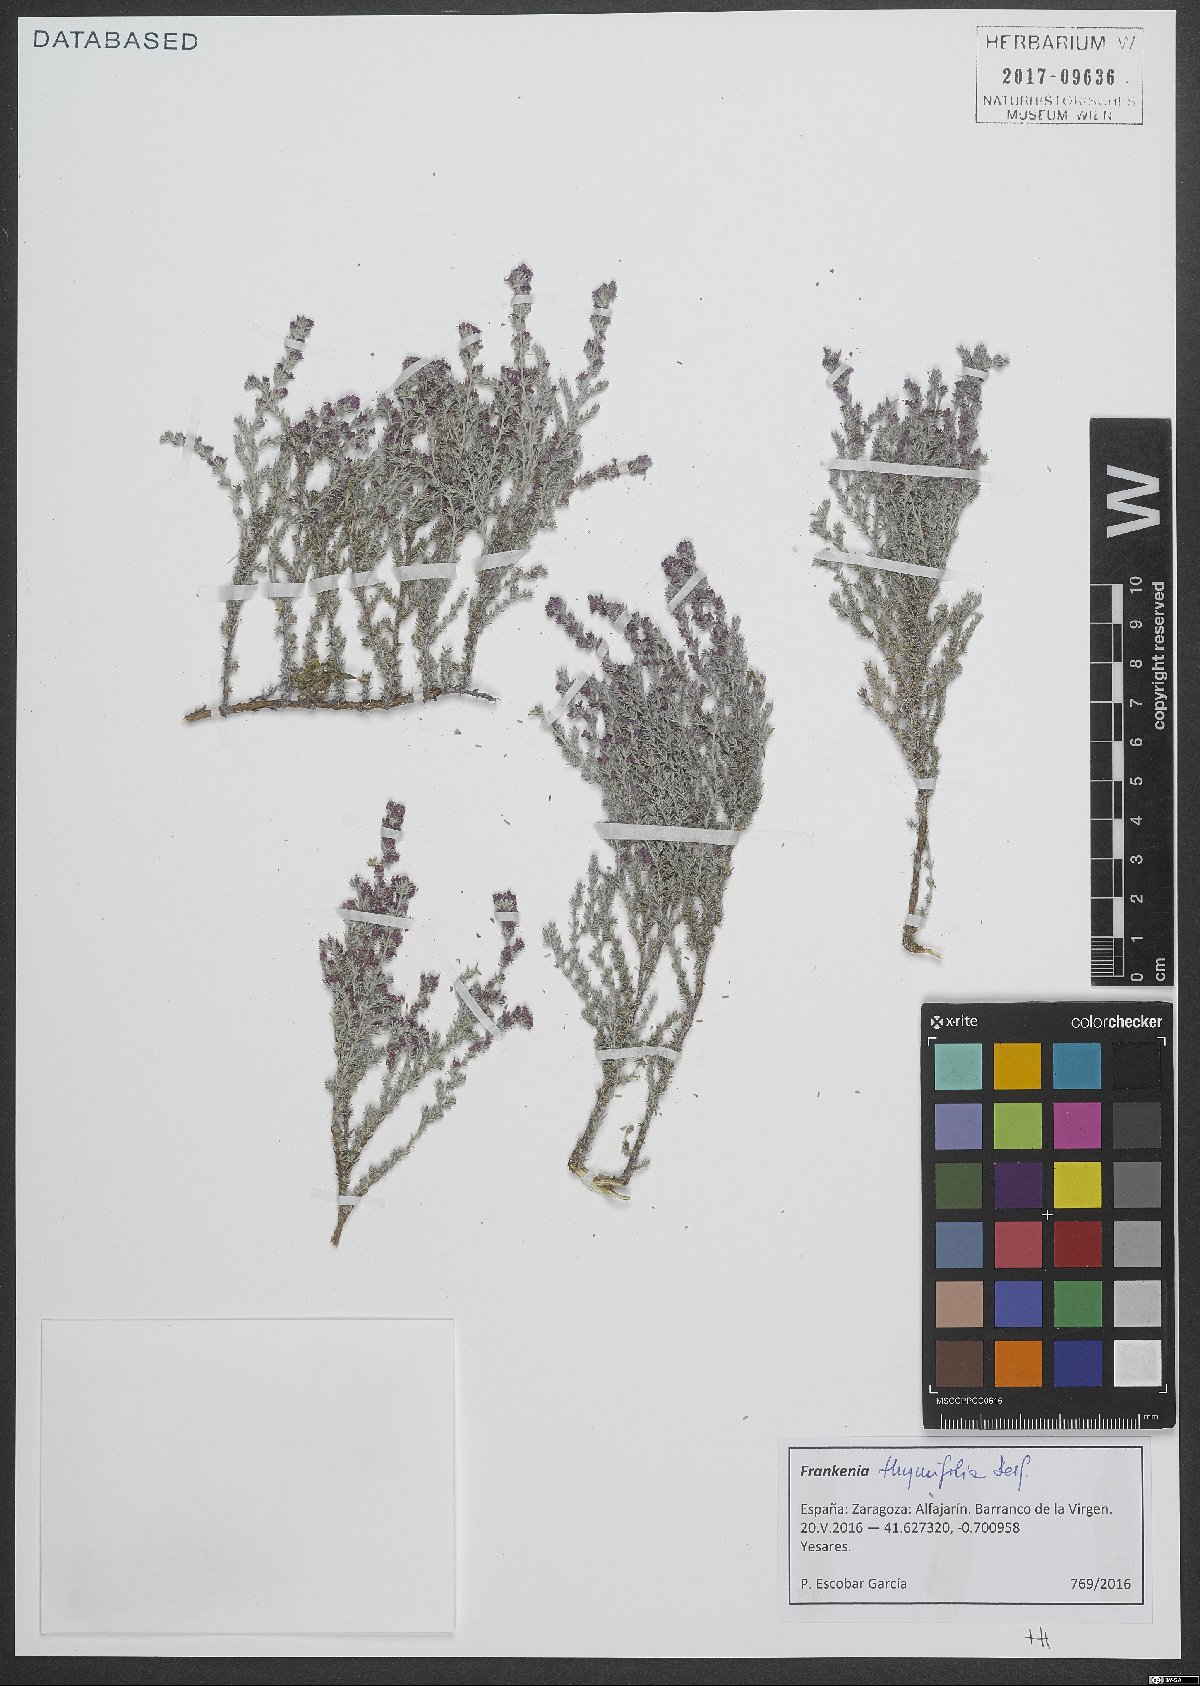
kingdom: Plantae
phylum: Tracheophyta
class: Magnoliopsida
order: Caryophyllales
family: Frankeniaceae
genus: Frankenia
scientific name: Frankenia thymifolia
